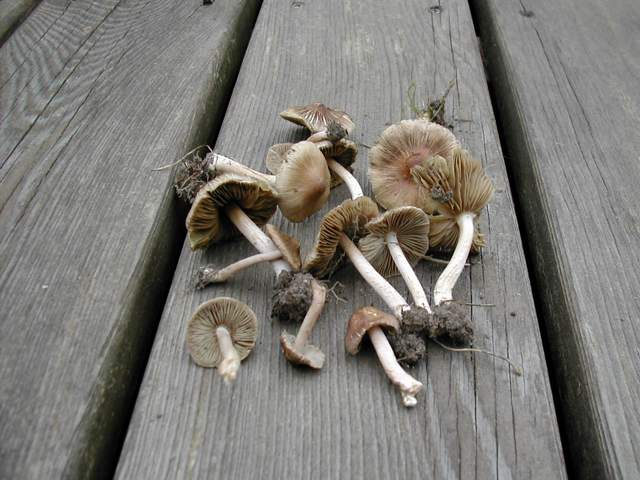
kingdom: Fungi
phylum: Basidiomycota
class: Agaricomycetes
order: Agaricales
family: Inocybaceae
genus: Inocybe
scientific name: Inocybe
